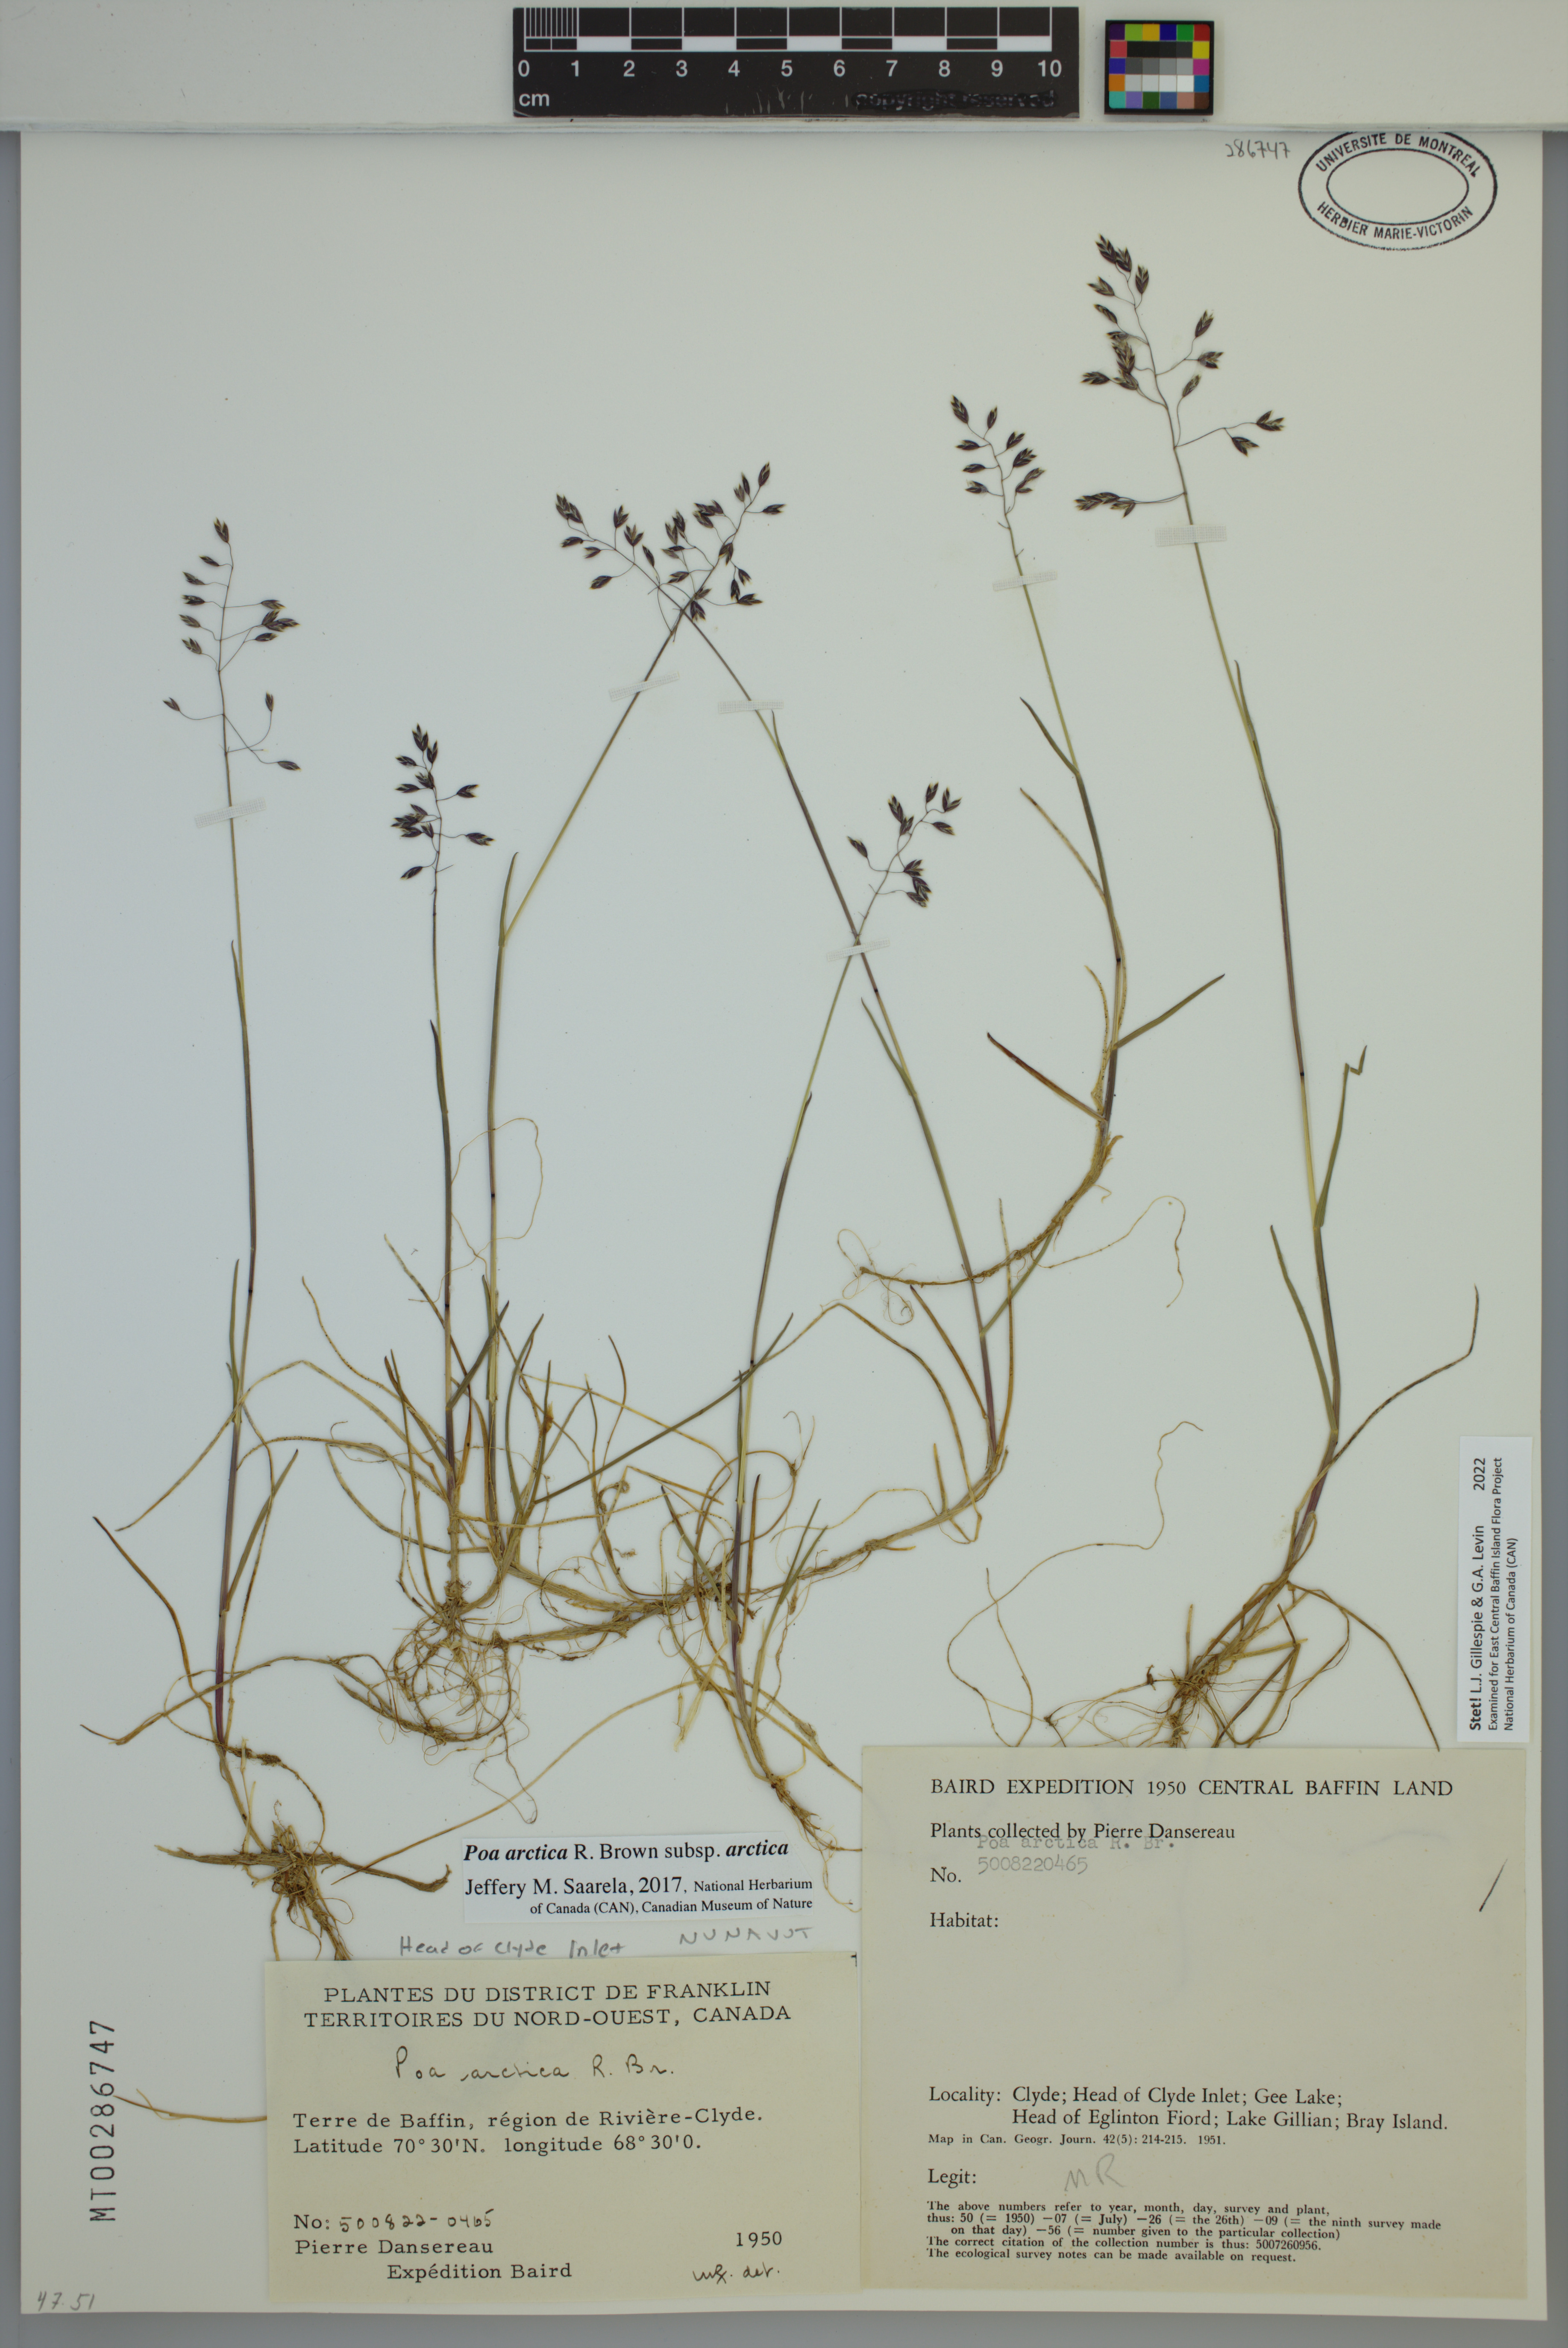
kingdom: Plantae
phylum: Tracheophyta
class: Liliopsida
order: Poales
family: Poaceae
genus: Poa
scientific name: Poa arctica
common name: Arctic bluegrass
